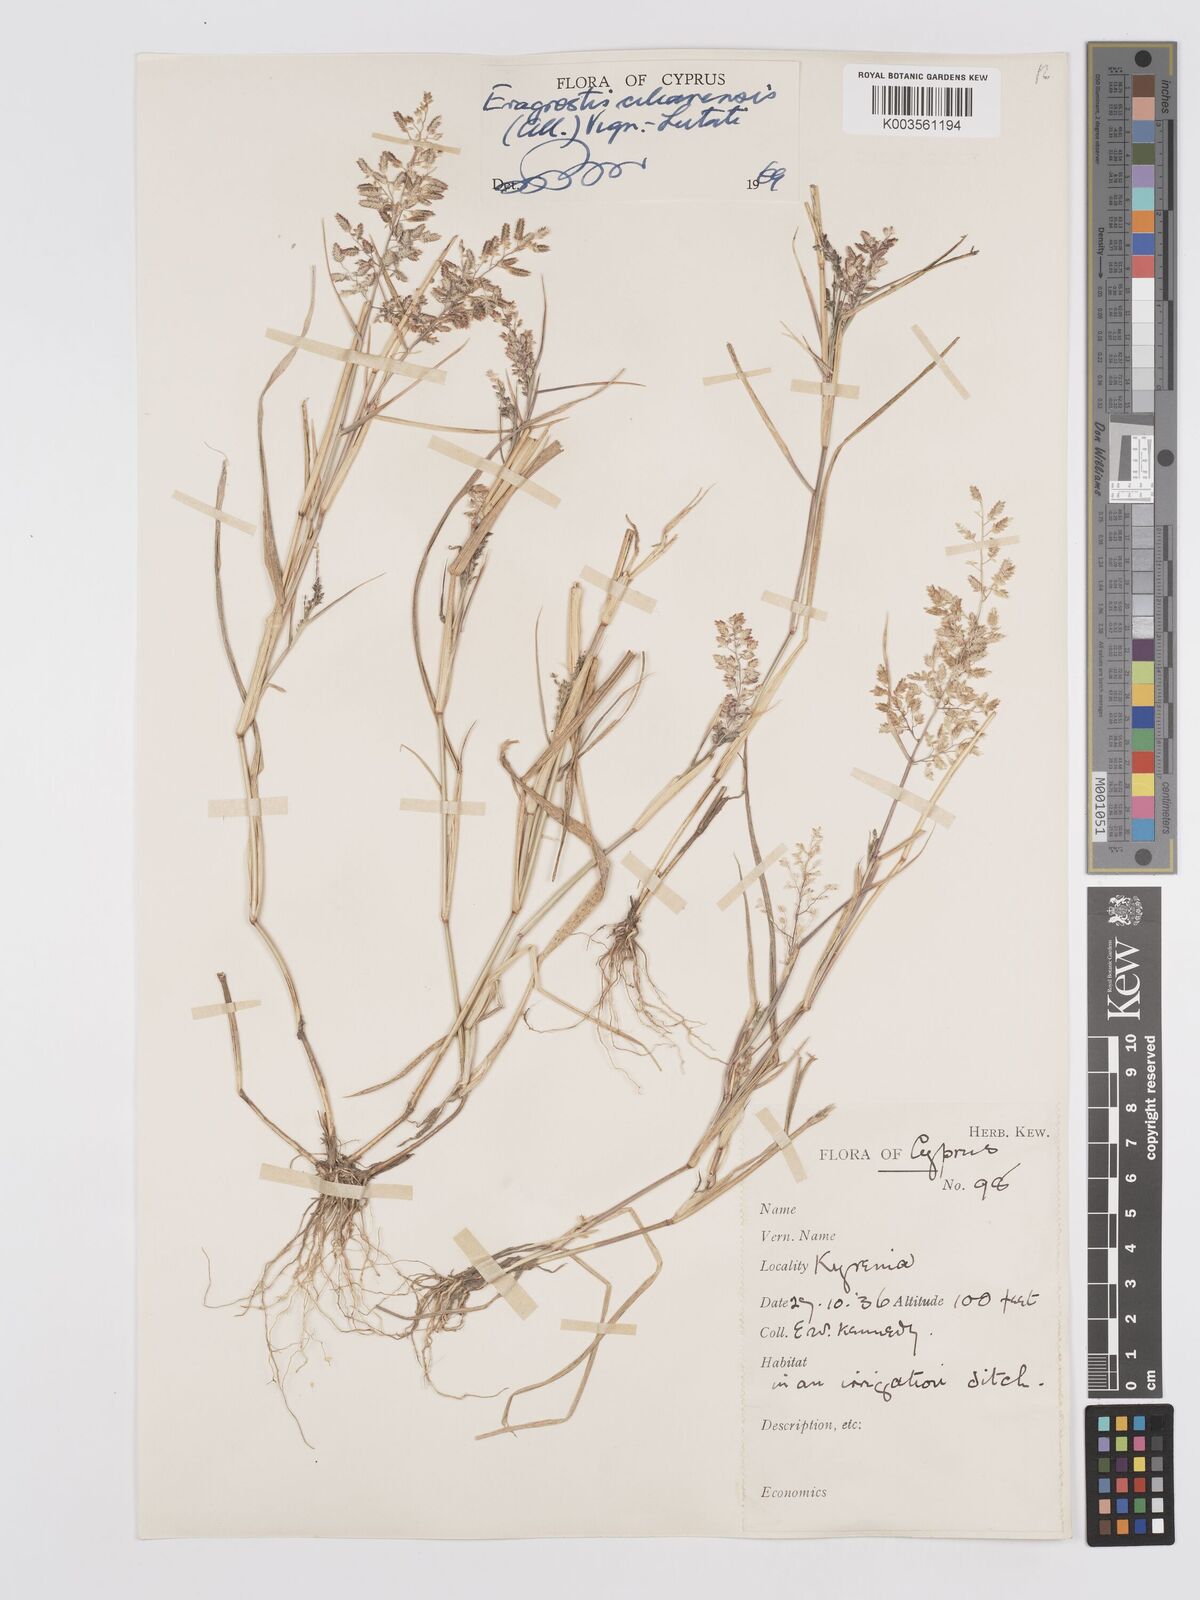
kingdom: Plantae
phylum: Tracheophyta
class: Liliopsida
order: Poales
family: Poaceae
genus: Eragrostis
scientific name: Eragrostis cilianensis
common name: Stinkgrass
